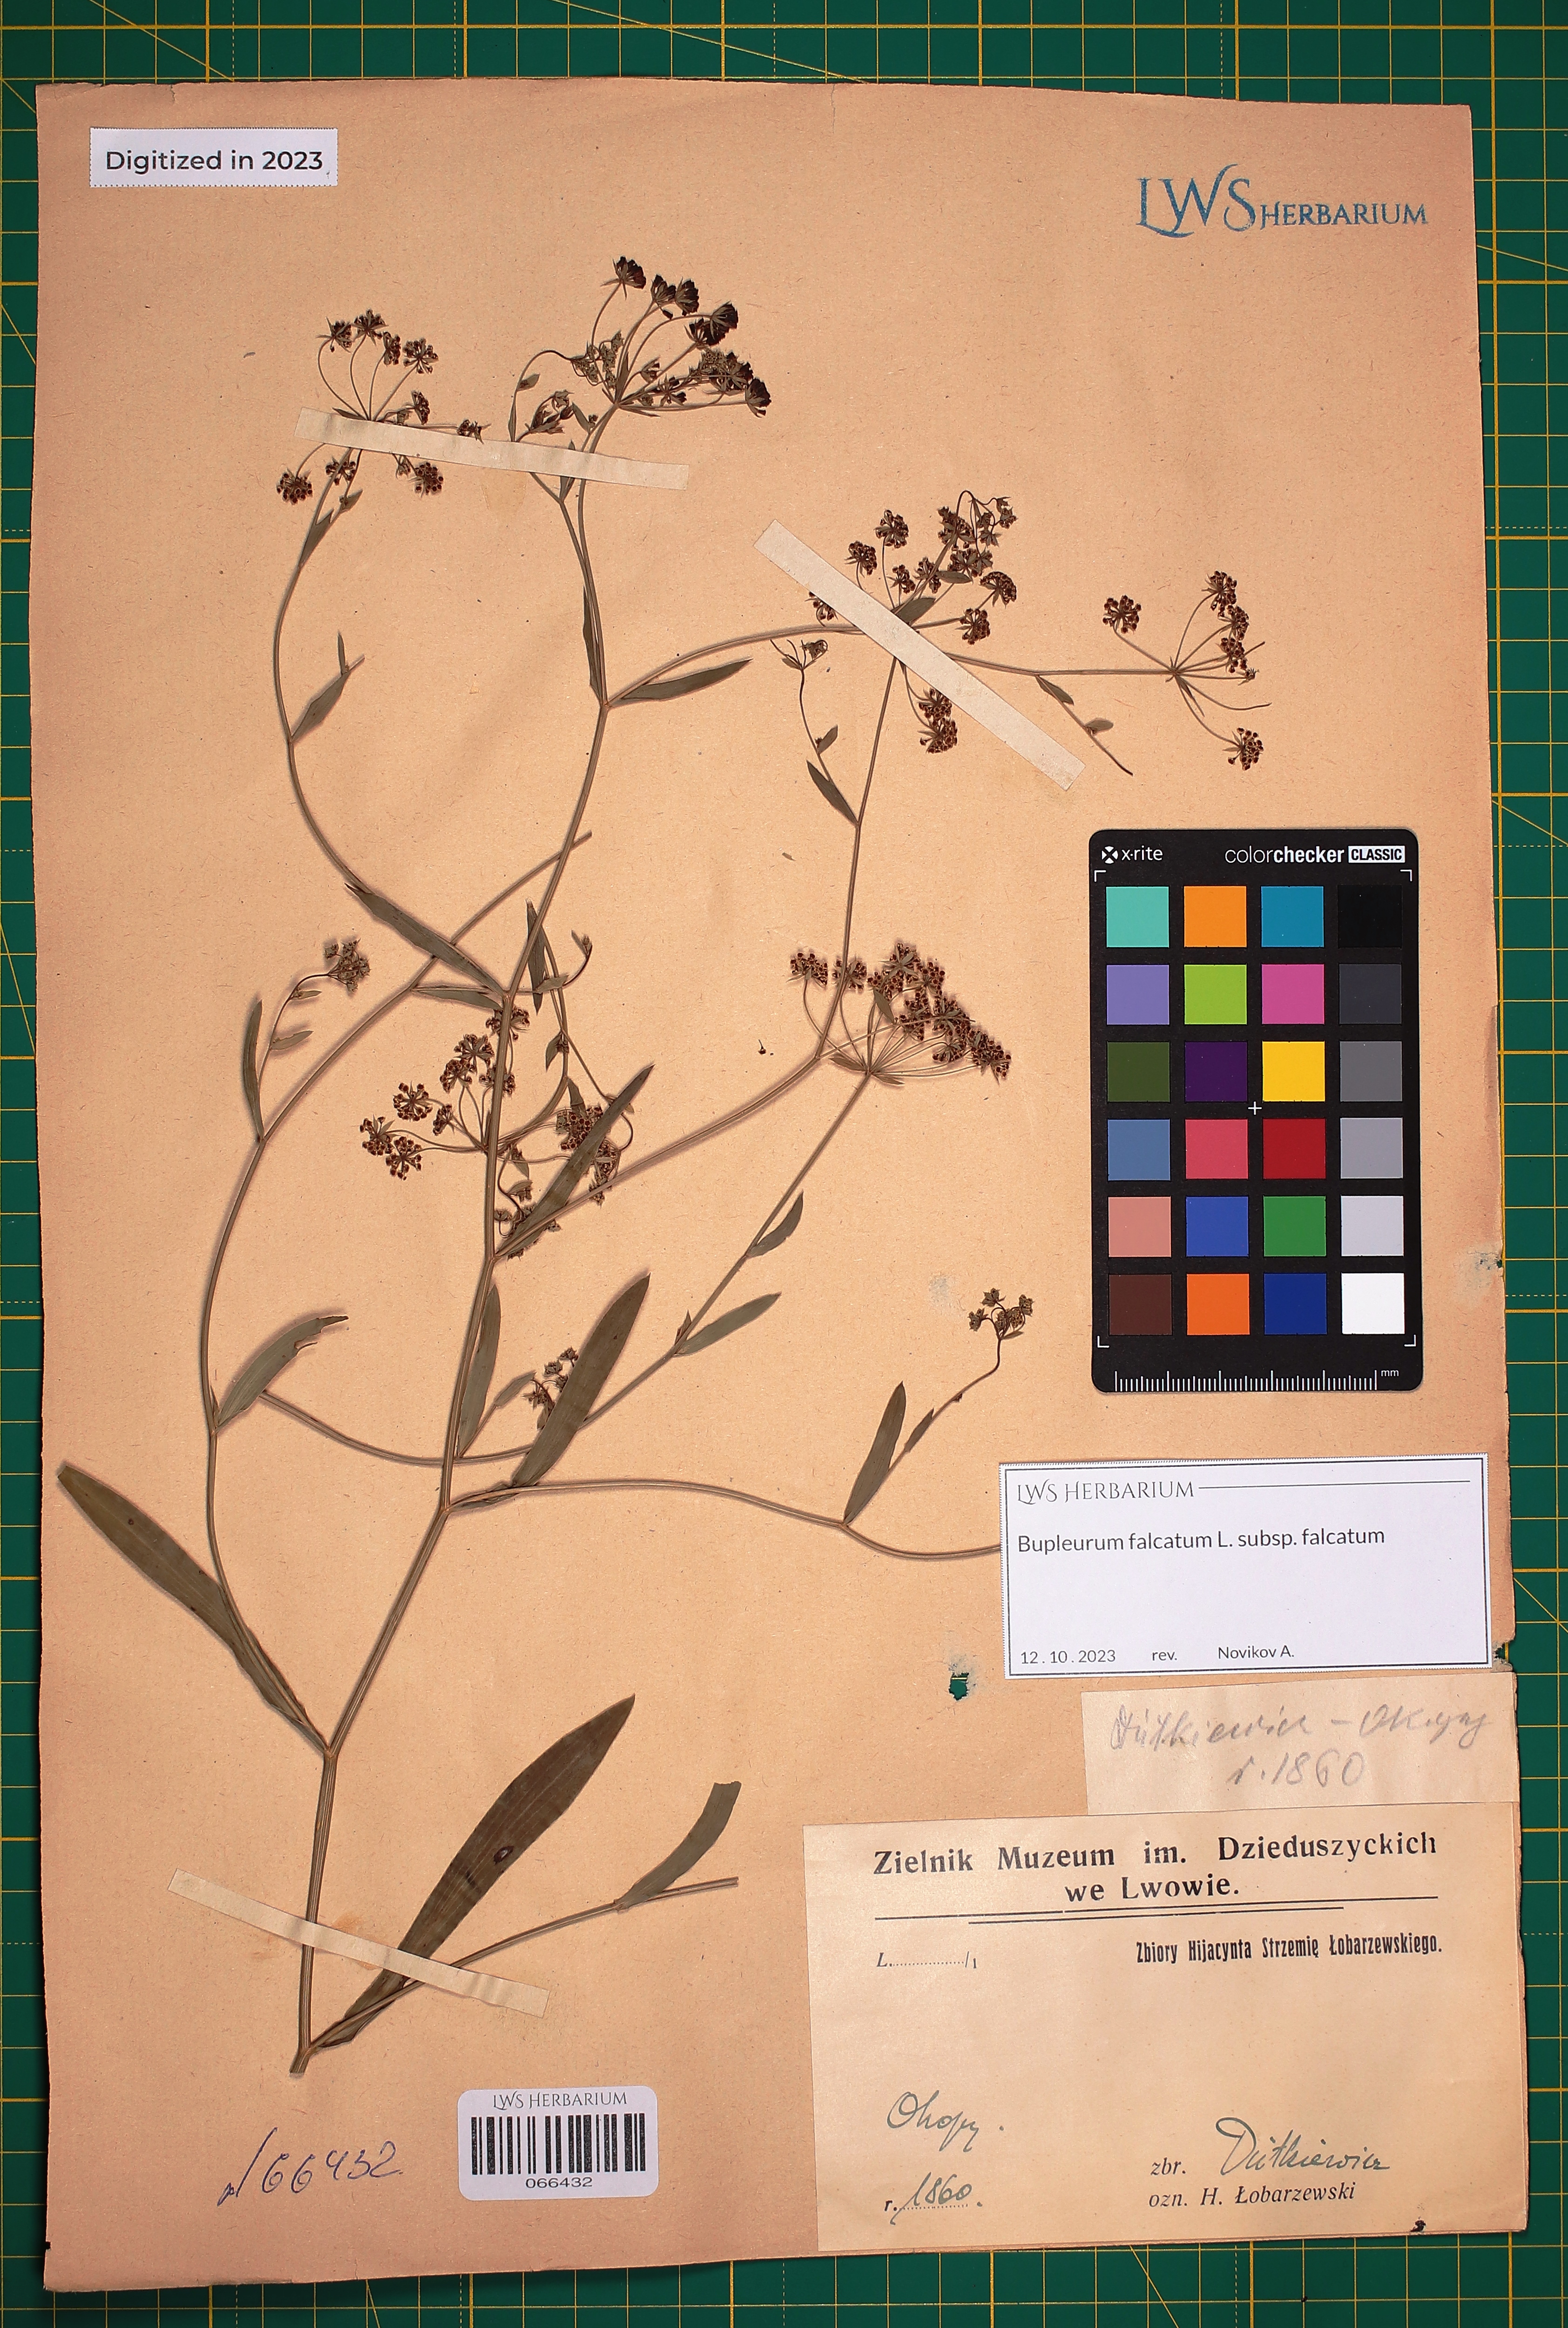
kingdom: Plantae
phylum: Tracheophyta
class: Magnoliopsida
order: Apiales
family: Apiaceae
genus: Bupleurum
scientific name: Bupleurum falcatum
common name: Sickle-leaved hare's-ear
